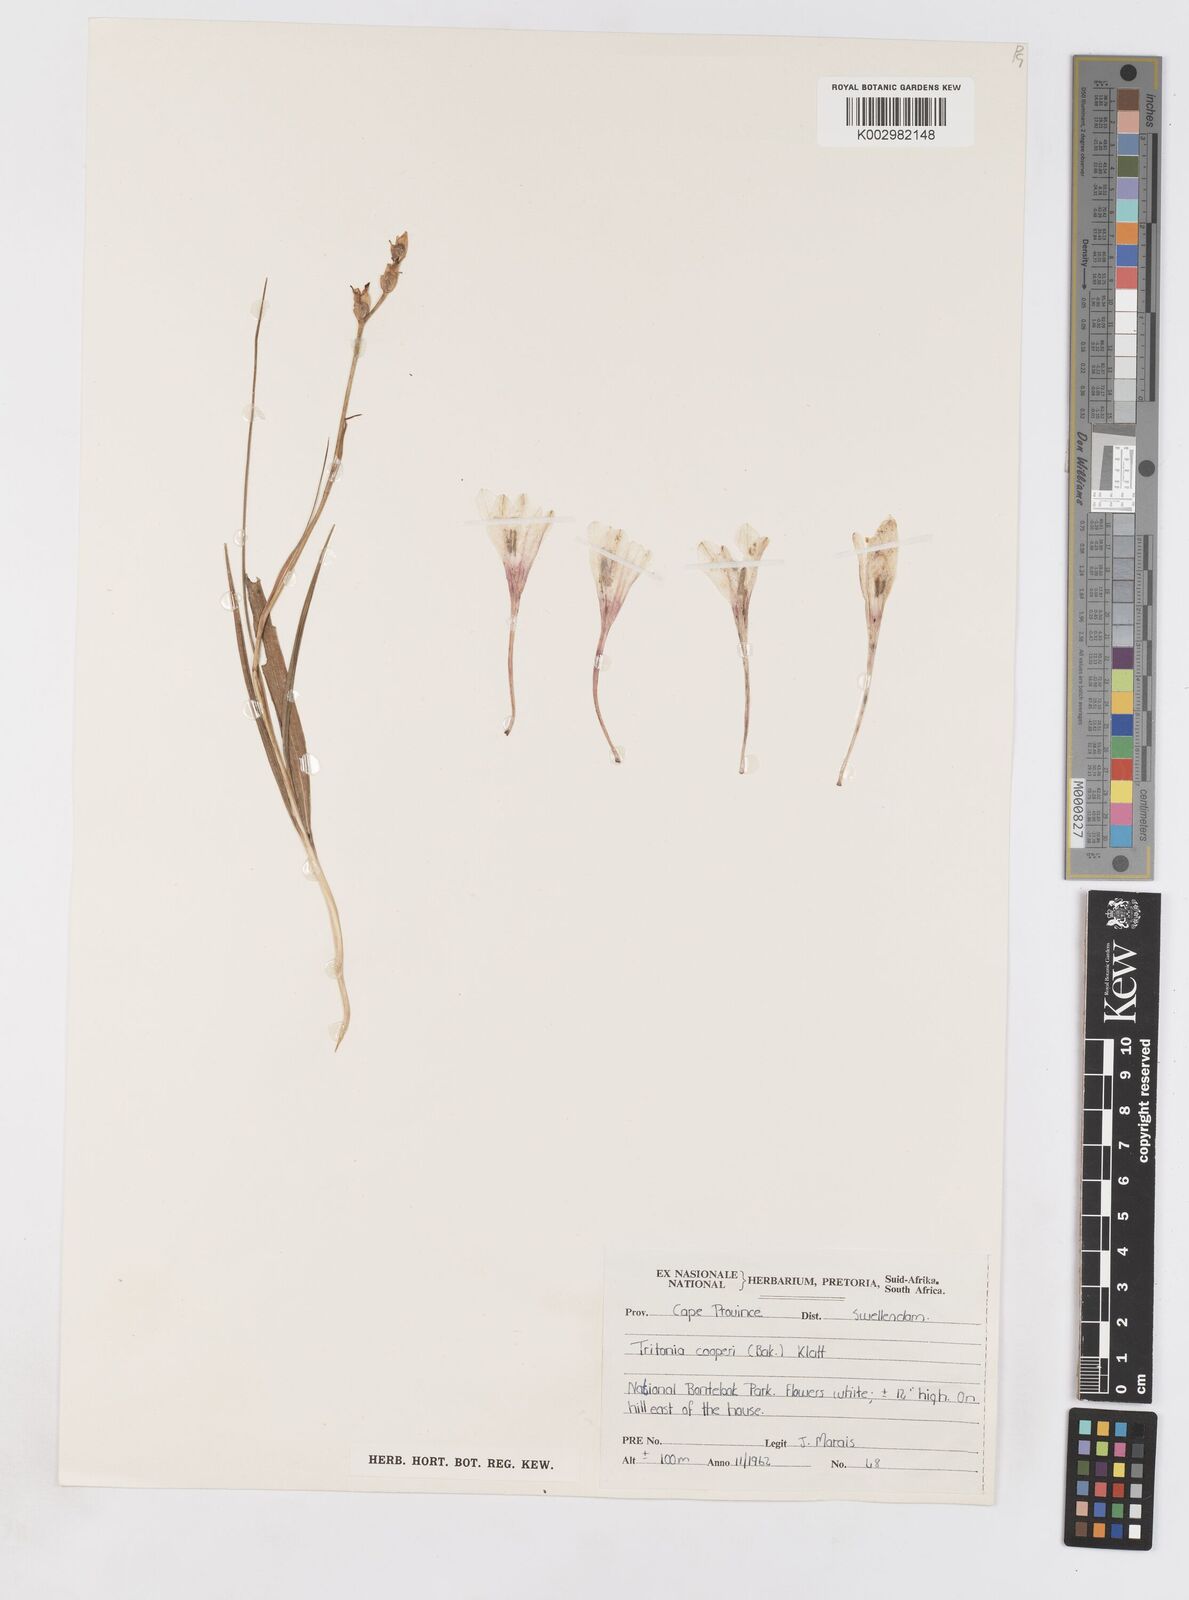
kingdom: Plantae
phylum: Tracheophyta
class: Liliopsida
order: Asparagales
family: Iridaceae
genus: Tritonia
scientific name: Tritonia cooperi
